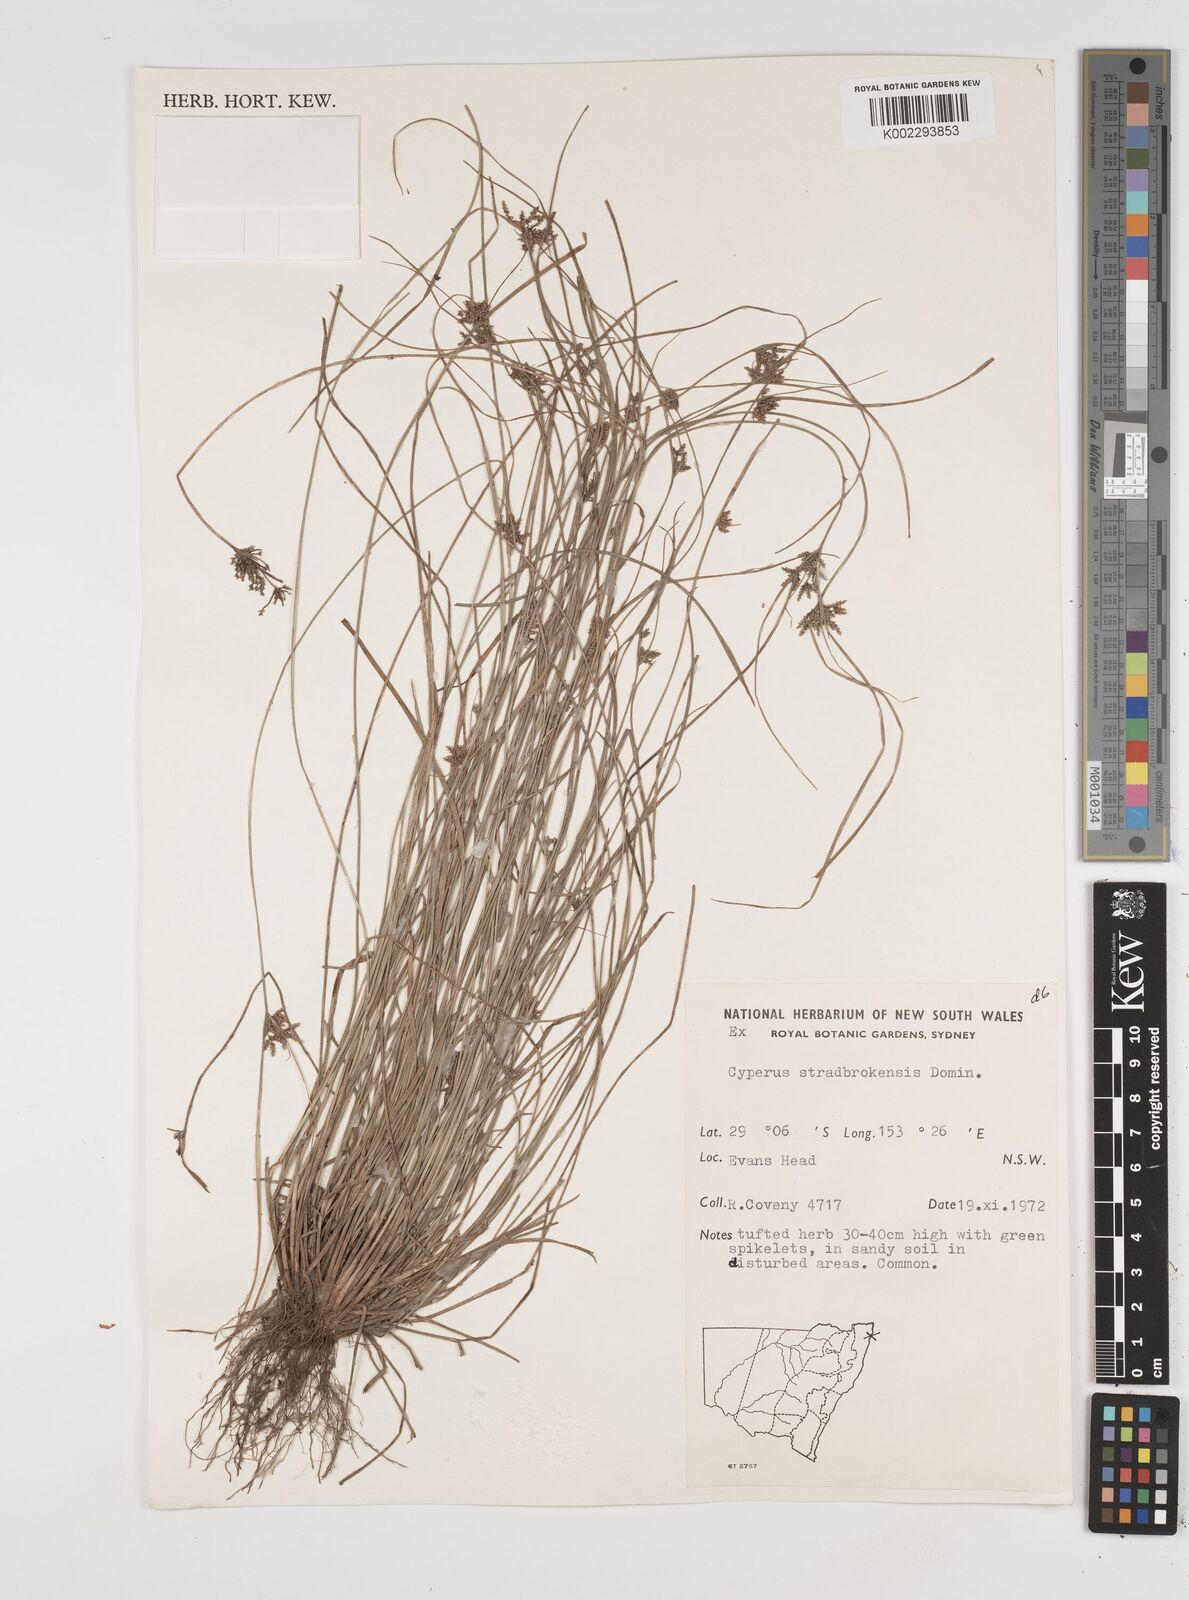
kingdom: Plantae
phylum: Tracheophyta
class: Liliopsida
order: Poales
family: Cyperaceae
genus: Cyperus
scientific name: Cyperus stradbrokensis
